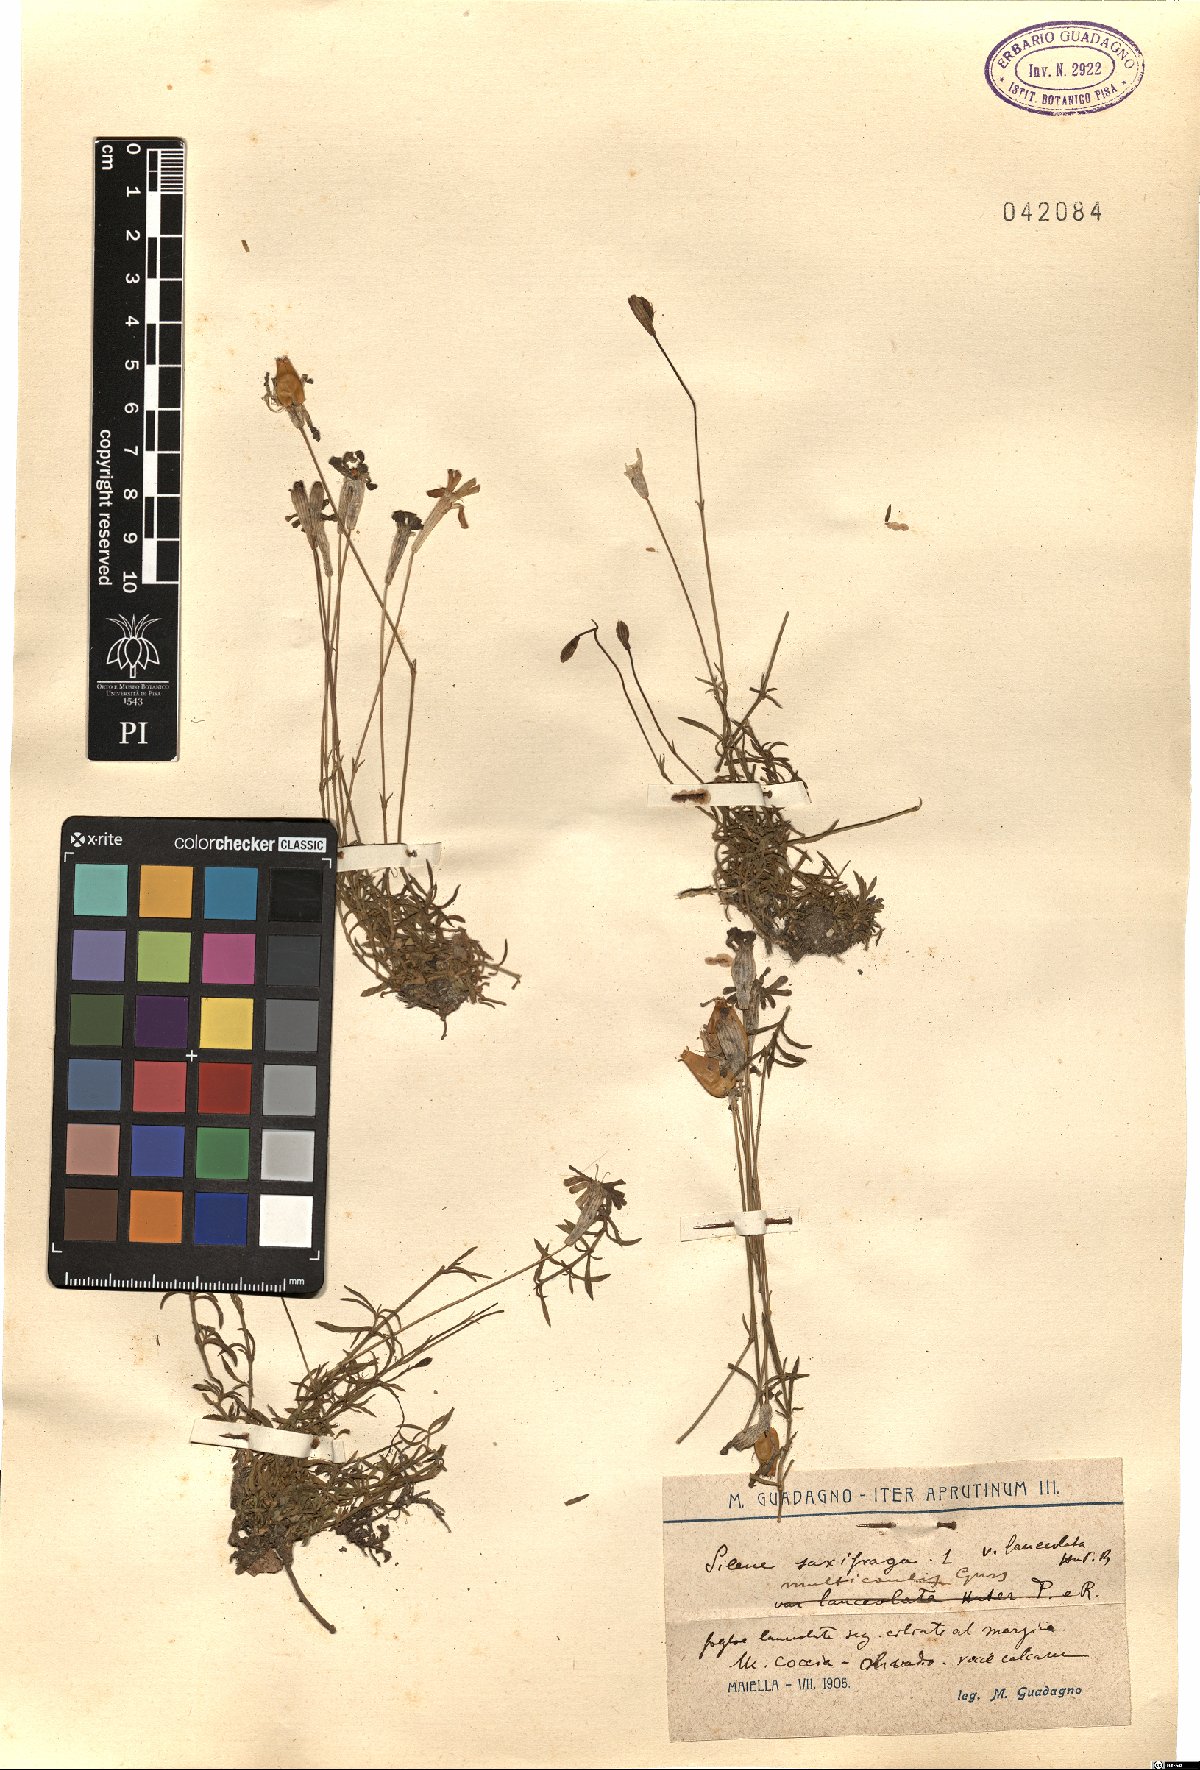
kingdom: Plantae
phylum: Tracheophyta
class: Magnoliopsida
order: Caryophyllales
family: Caryophyllaceae
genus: Silene
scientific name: Silene multicaulis
